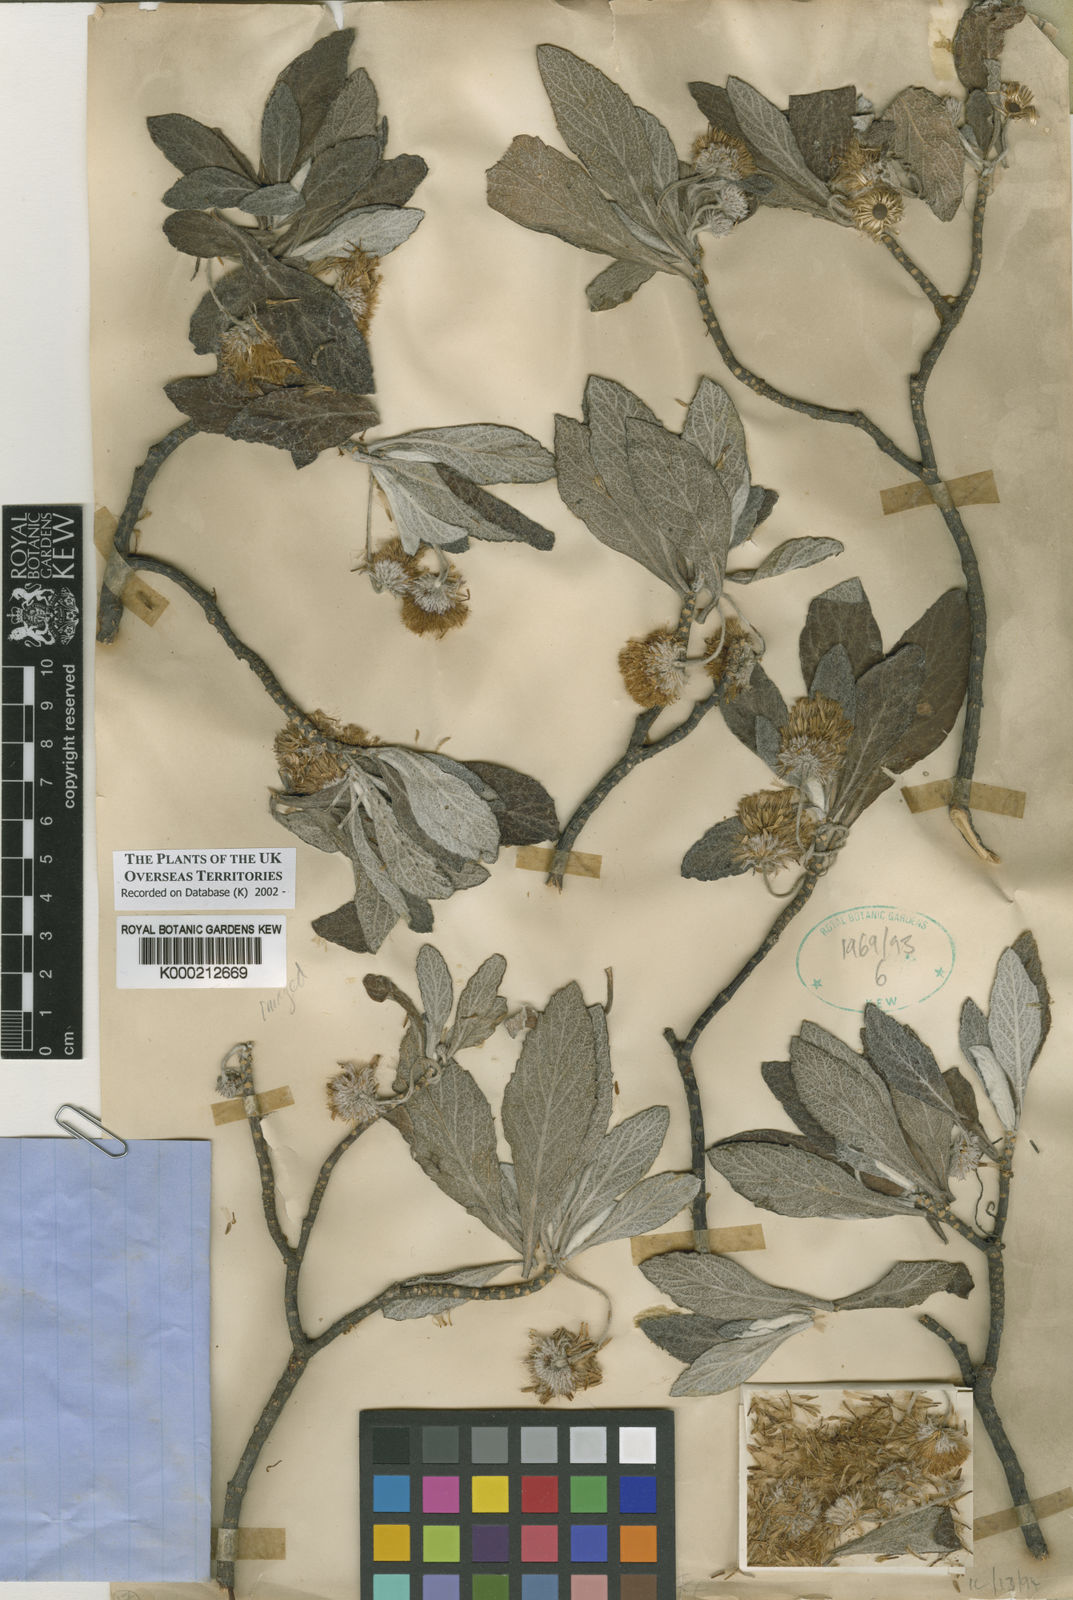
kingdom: Plantae
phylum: Tracheophyta
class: Magnoliopsida
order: Asterales
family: Asteraceae
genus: Commidendrum
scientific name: Commidendrum robustum
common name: Gumwood
